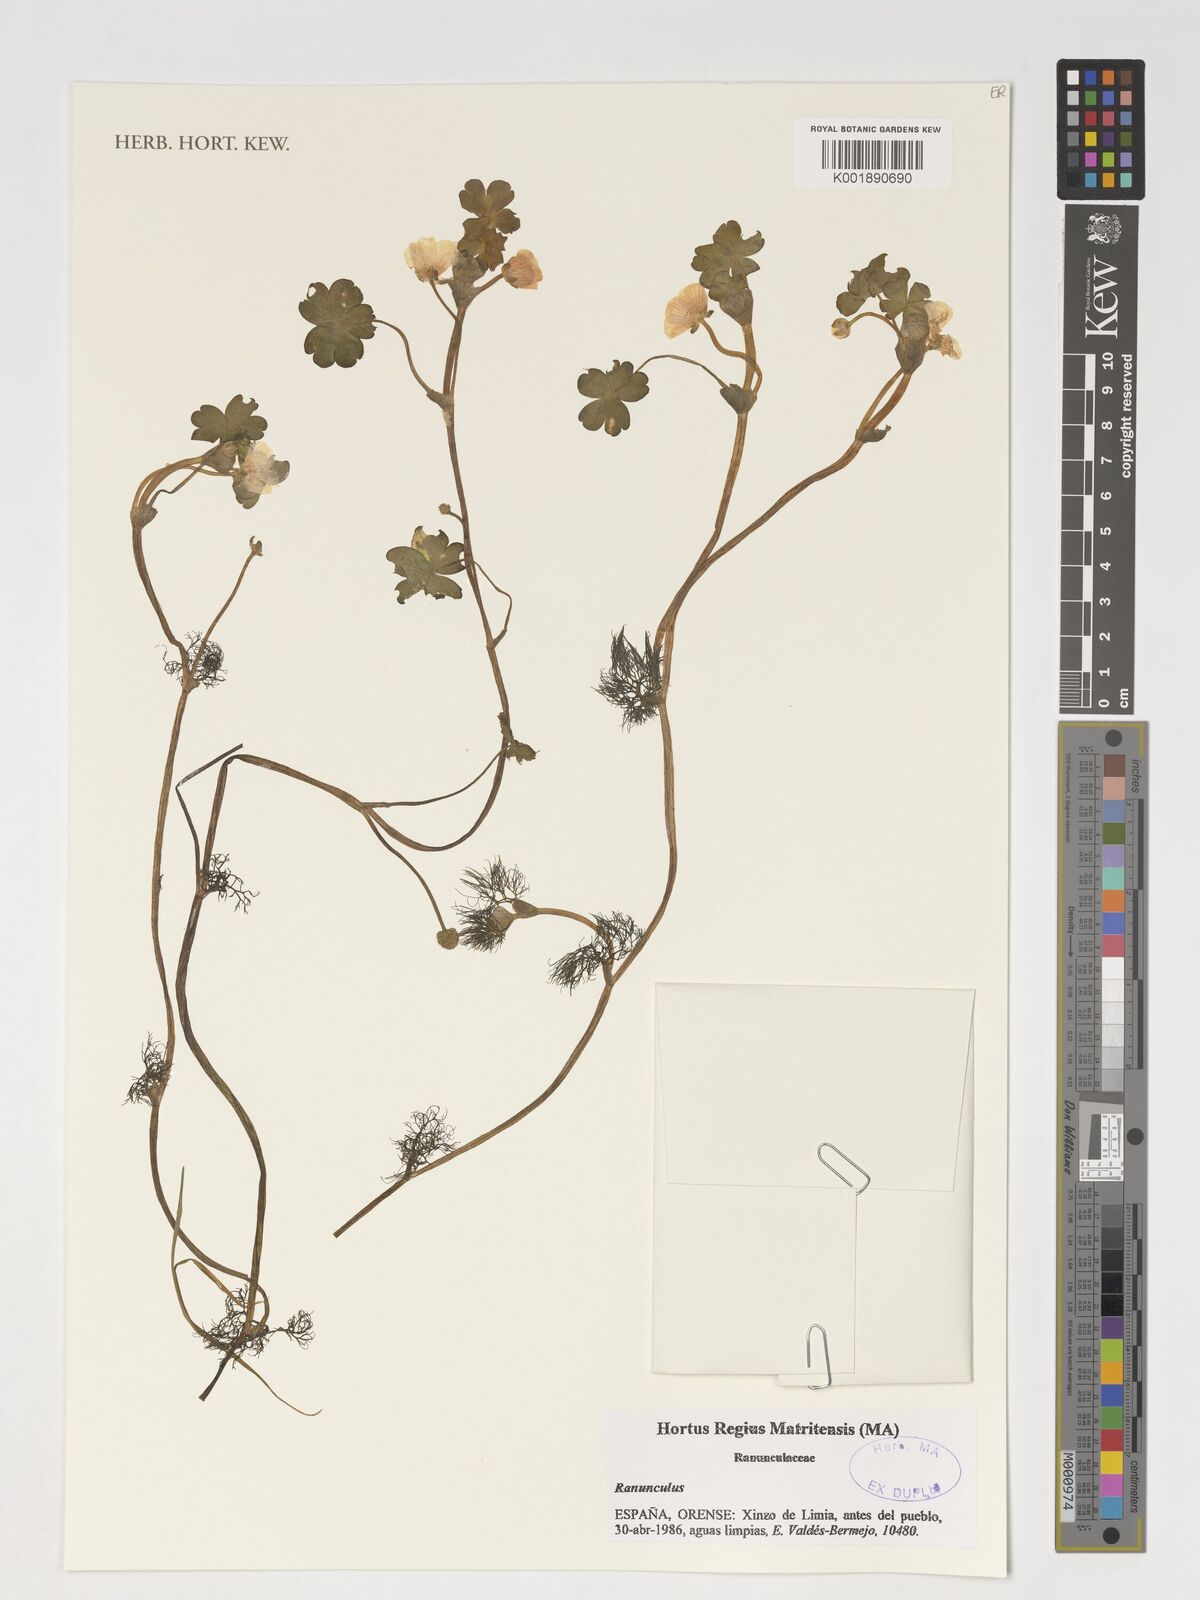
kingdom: Plantae
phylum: Tracheophyta
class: Magnoliopsida
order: Ranunculales
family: Ranunculaceae
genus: Ranunculus
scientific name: Ranunculus
